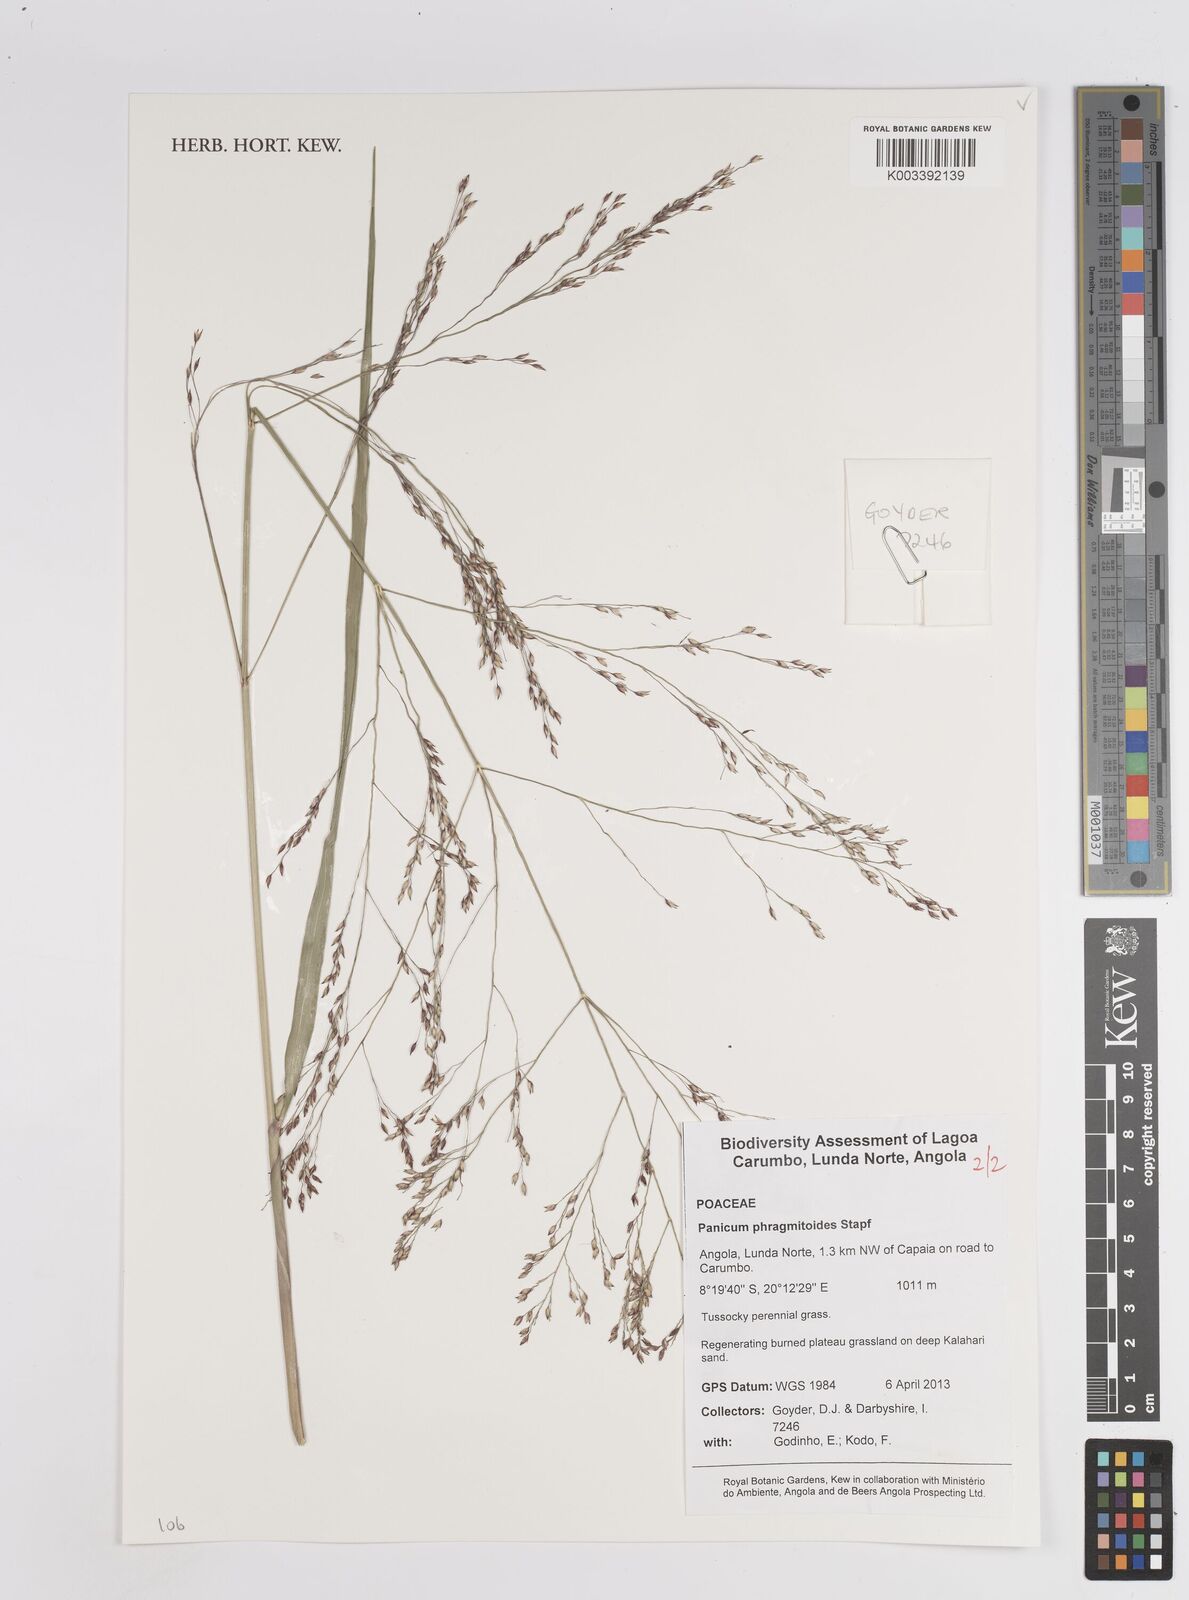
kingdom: Plantae
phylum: Tracheophyta
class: Liliopsida
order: Poales
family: Poaceae
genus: Panicum
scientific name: Panicum phragmitoides
